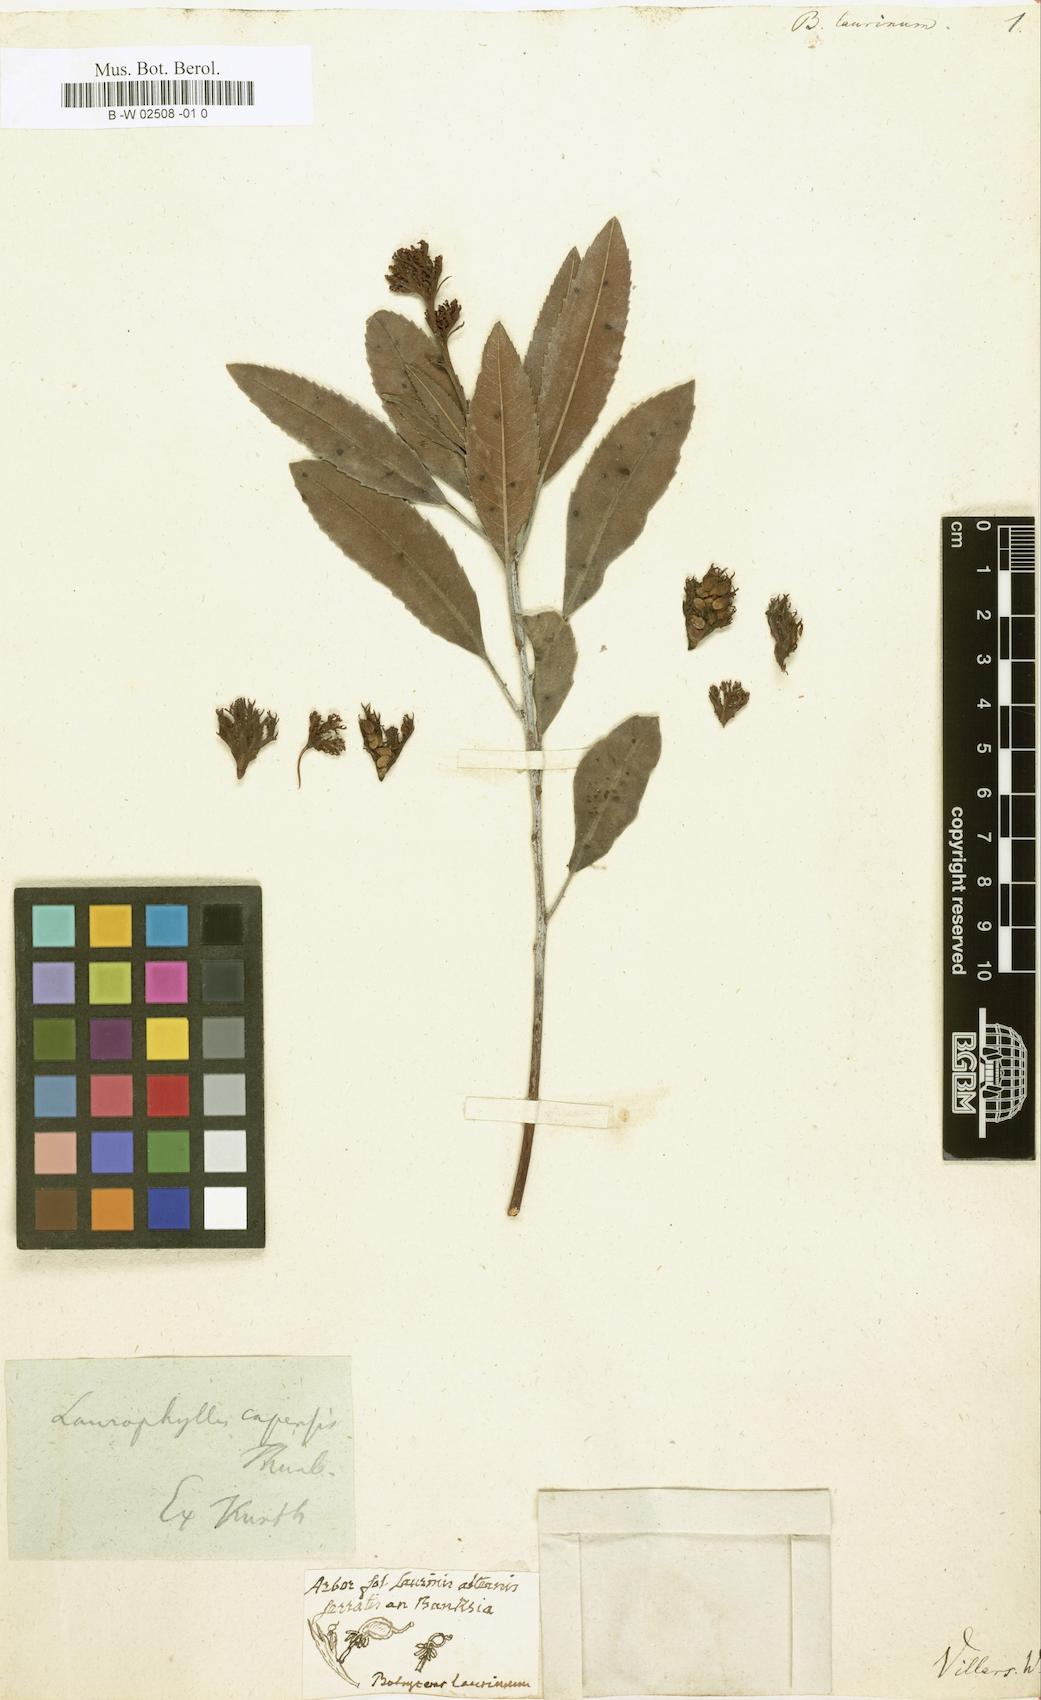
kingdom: Plantae
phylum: Tracheophyta
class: Magnoliopsida
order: Sapindales
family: Anacardiaceae
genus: Laurophyllus
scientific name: Laurophyllus capensis
